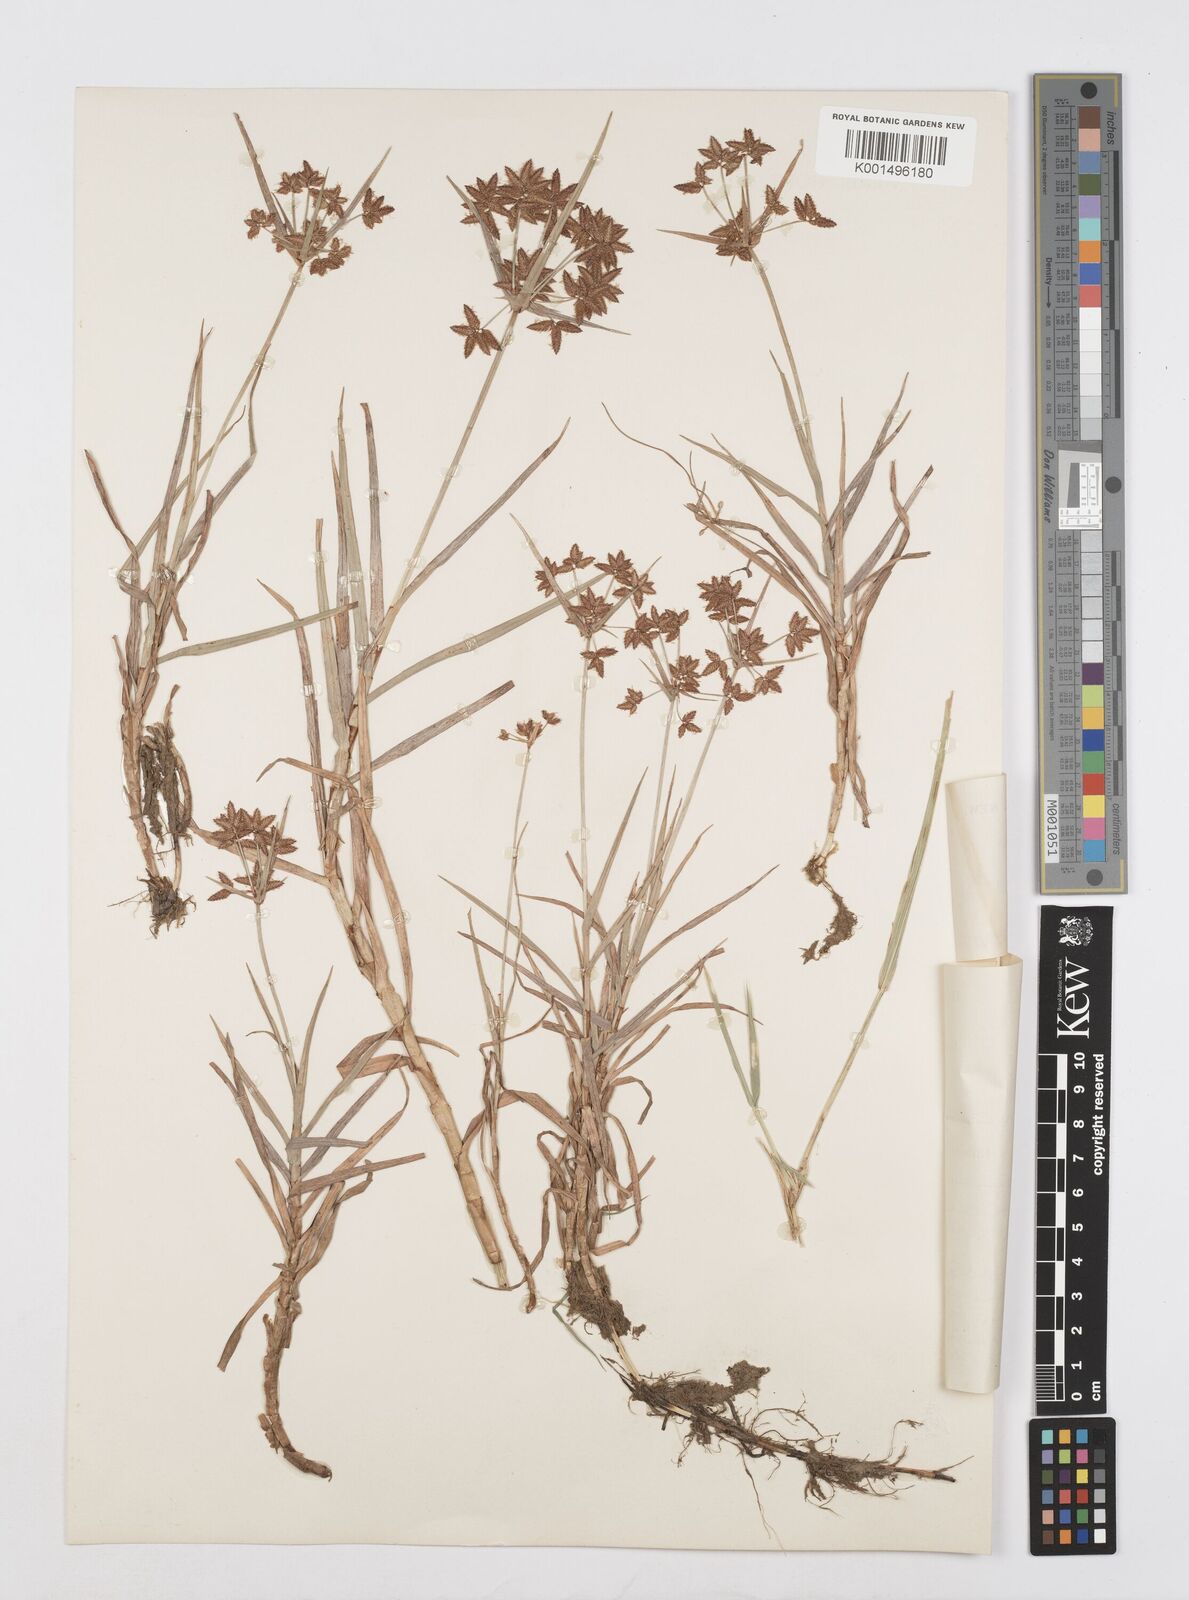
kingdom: Plantae
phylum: Tracheophyta
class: Liliopsida
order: Poales
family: Cyperaceae
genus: Cyperus
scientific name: Cyperus mundii
